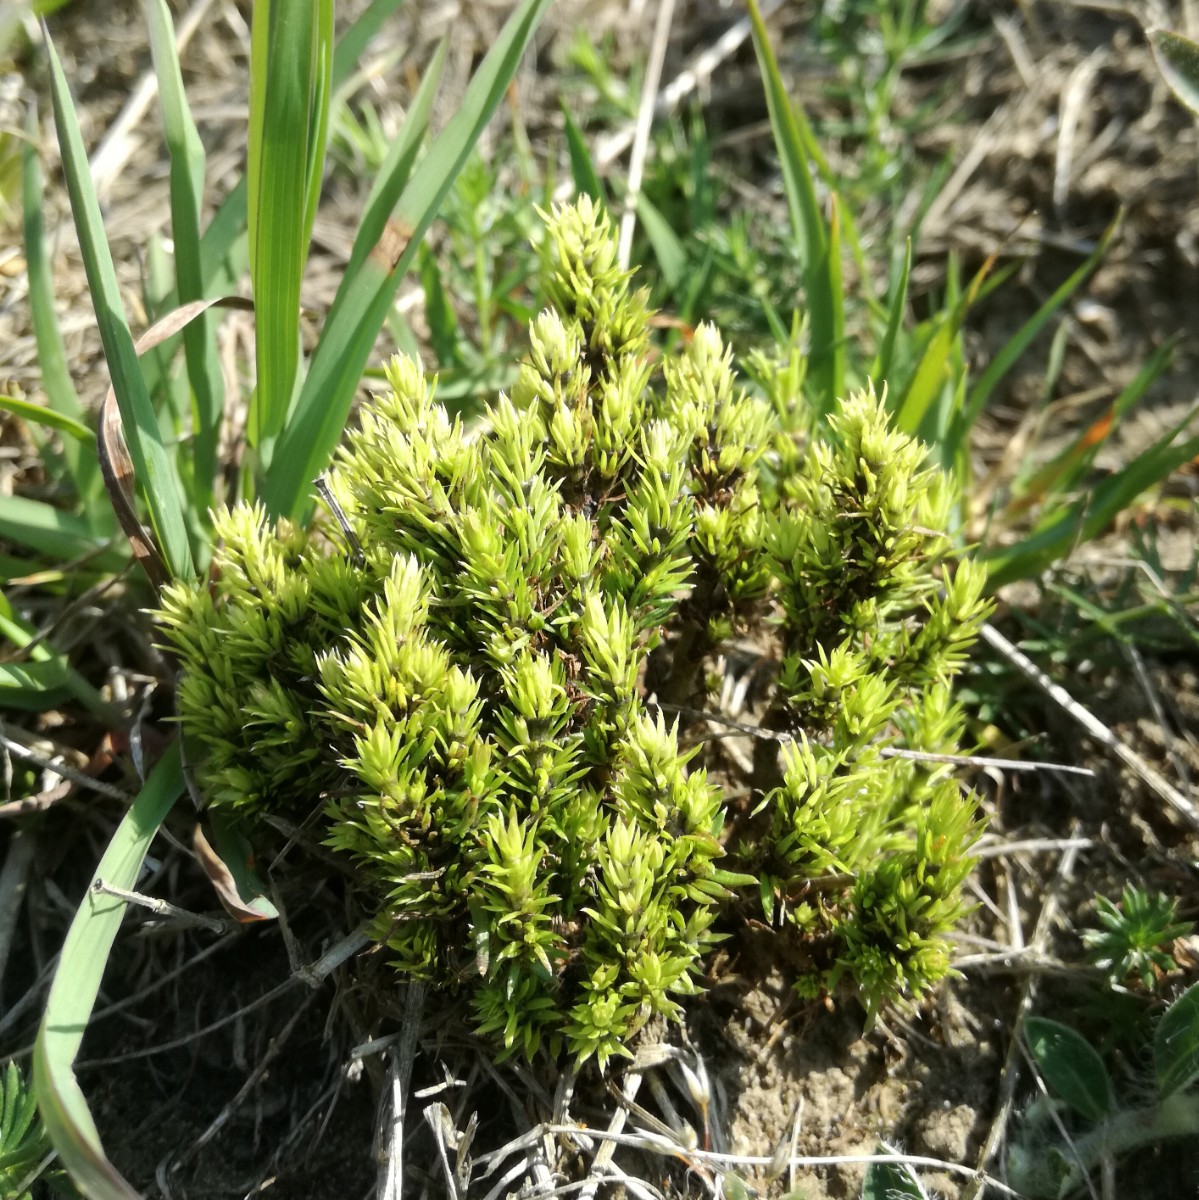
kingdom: Fungi
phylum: Basidiomycota
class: Ustilaginomycetes
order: Ustilaginales
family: Melanotaeniaceae
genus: Melanotaenium
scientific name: Melanotaenium endogenum
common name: Bedstraw smut
